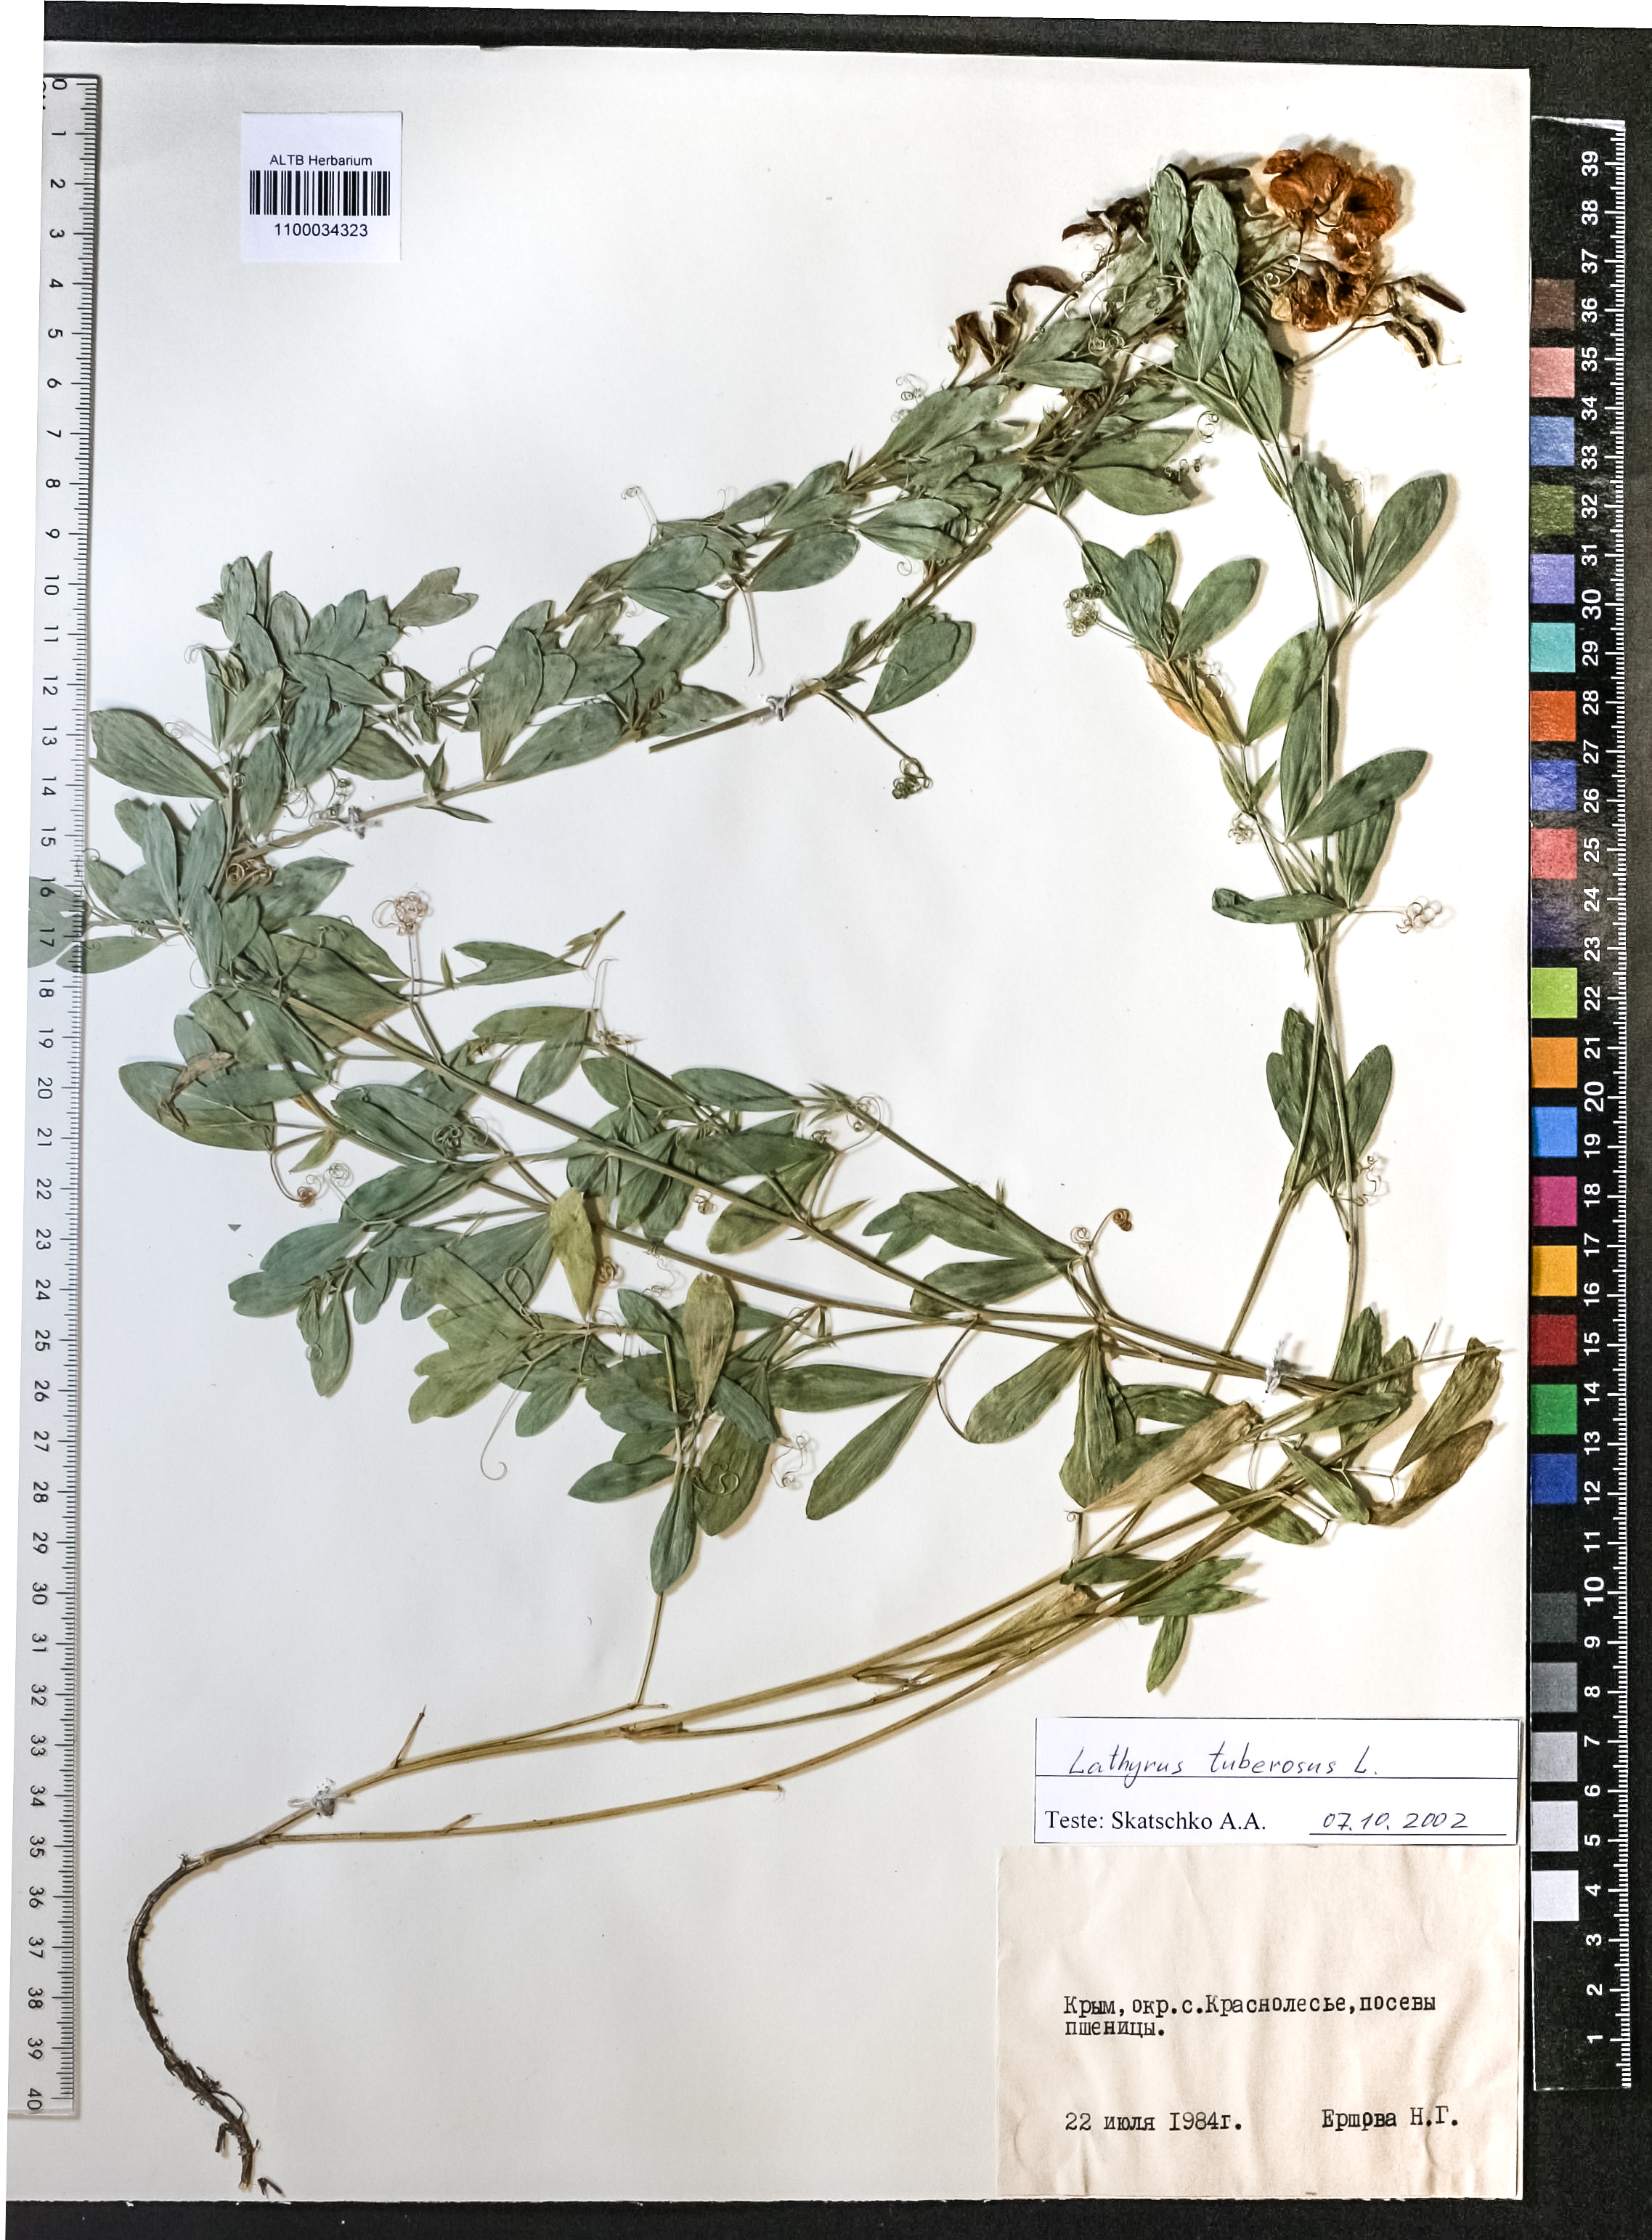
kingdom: Plantae
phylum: Tracheophyta
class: Magnoliopsida
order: Fabales
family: Fabaceae
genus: Lathyrus
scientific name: Lathyrus tuberosus
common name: Tuberous pea
